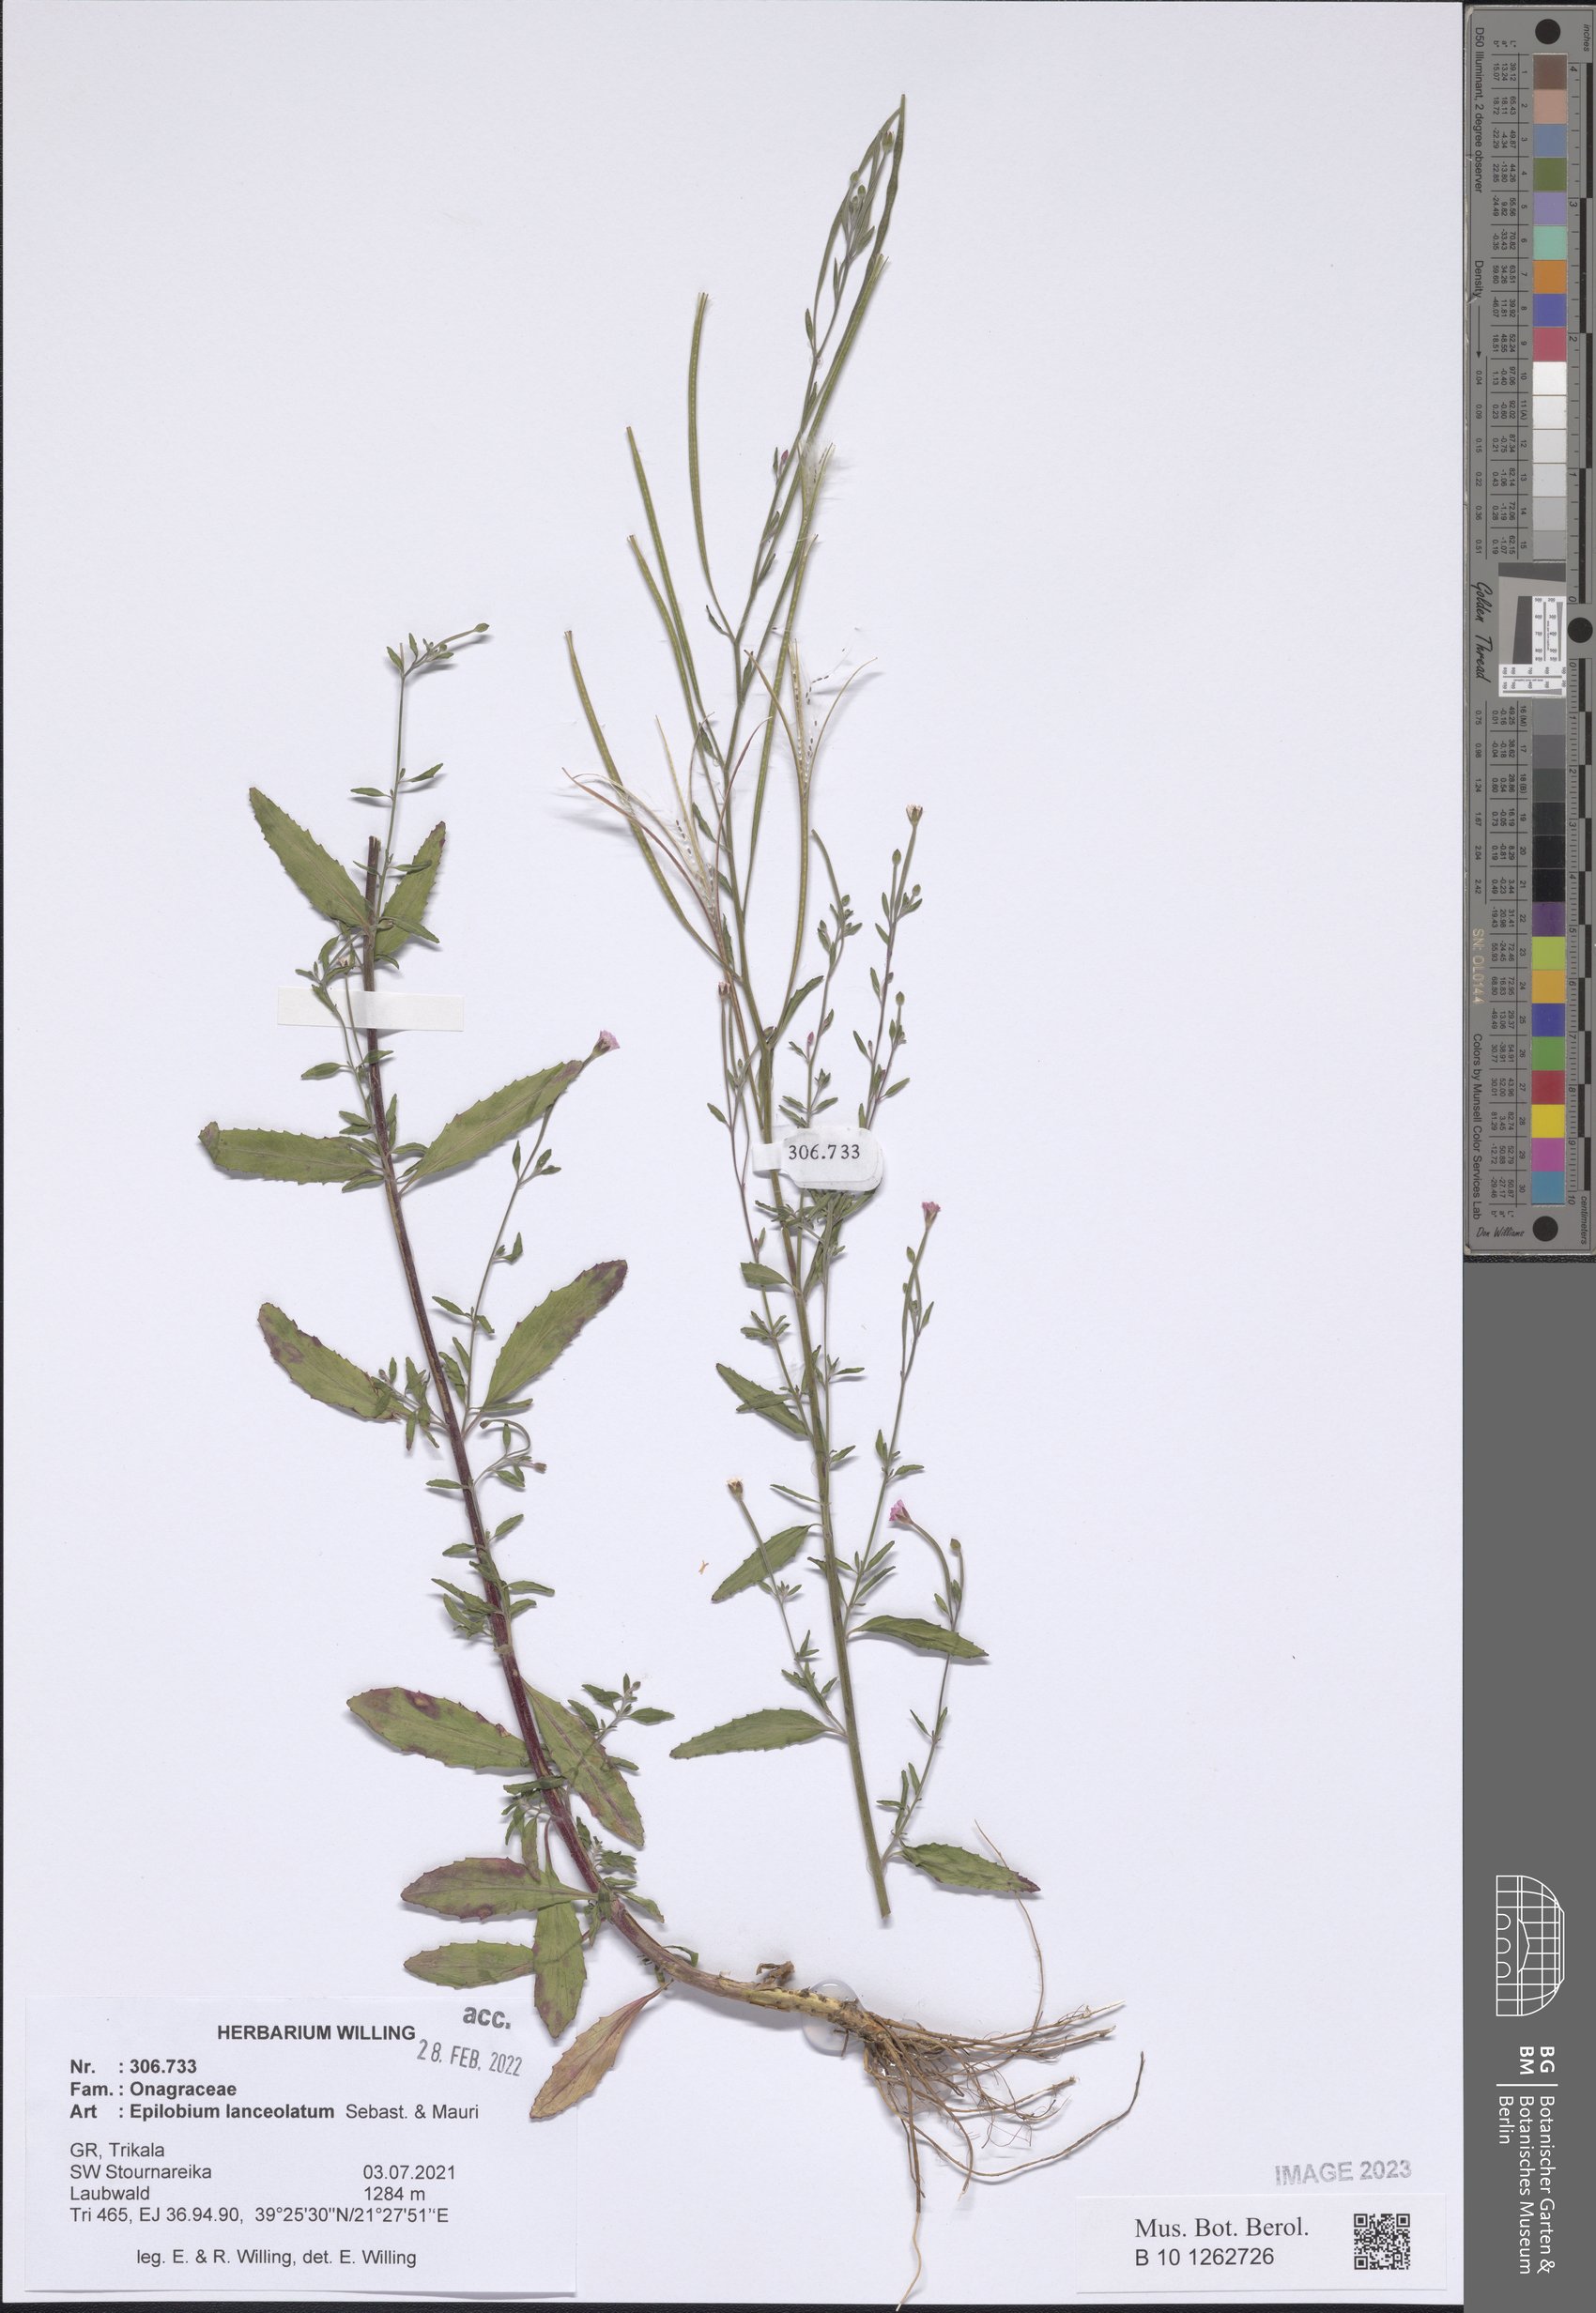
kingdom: Plantae
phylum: Tracheophyta
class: Magnoliopsida
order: Myrtales
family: Onagraceae
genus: Epilobium
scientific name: Epilobium lanceolatum
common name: Spear-leaved willowherb
